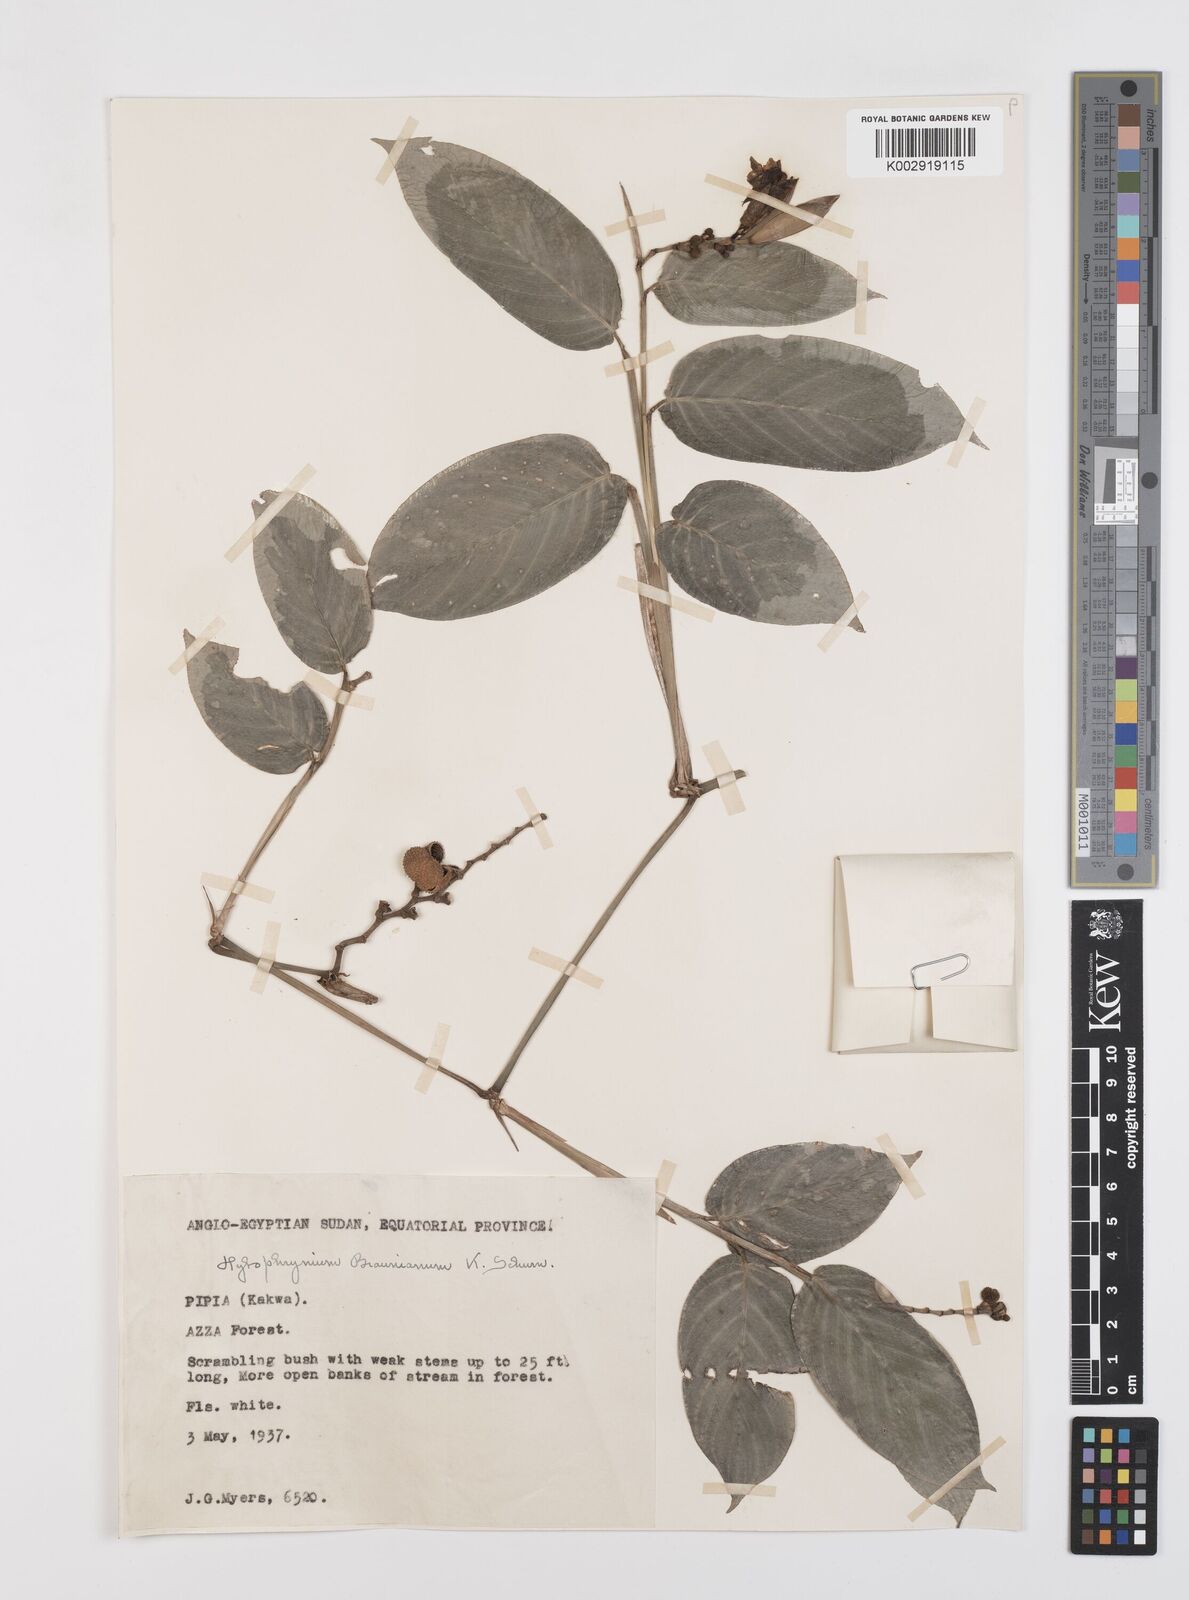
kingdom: Plantae
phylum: Tracheophyta
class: Liliopsida
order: Zingiberales
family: Marantaceae
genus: Trachyphrynium
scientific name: Trachyphrynium braunianum
